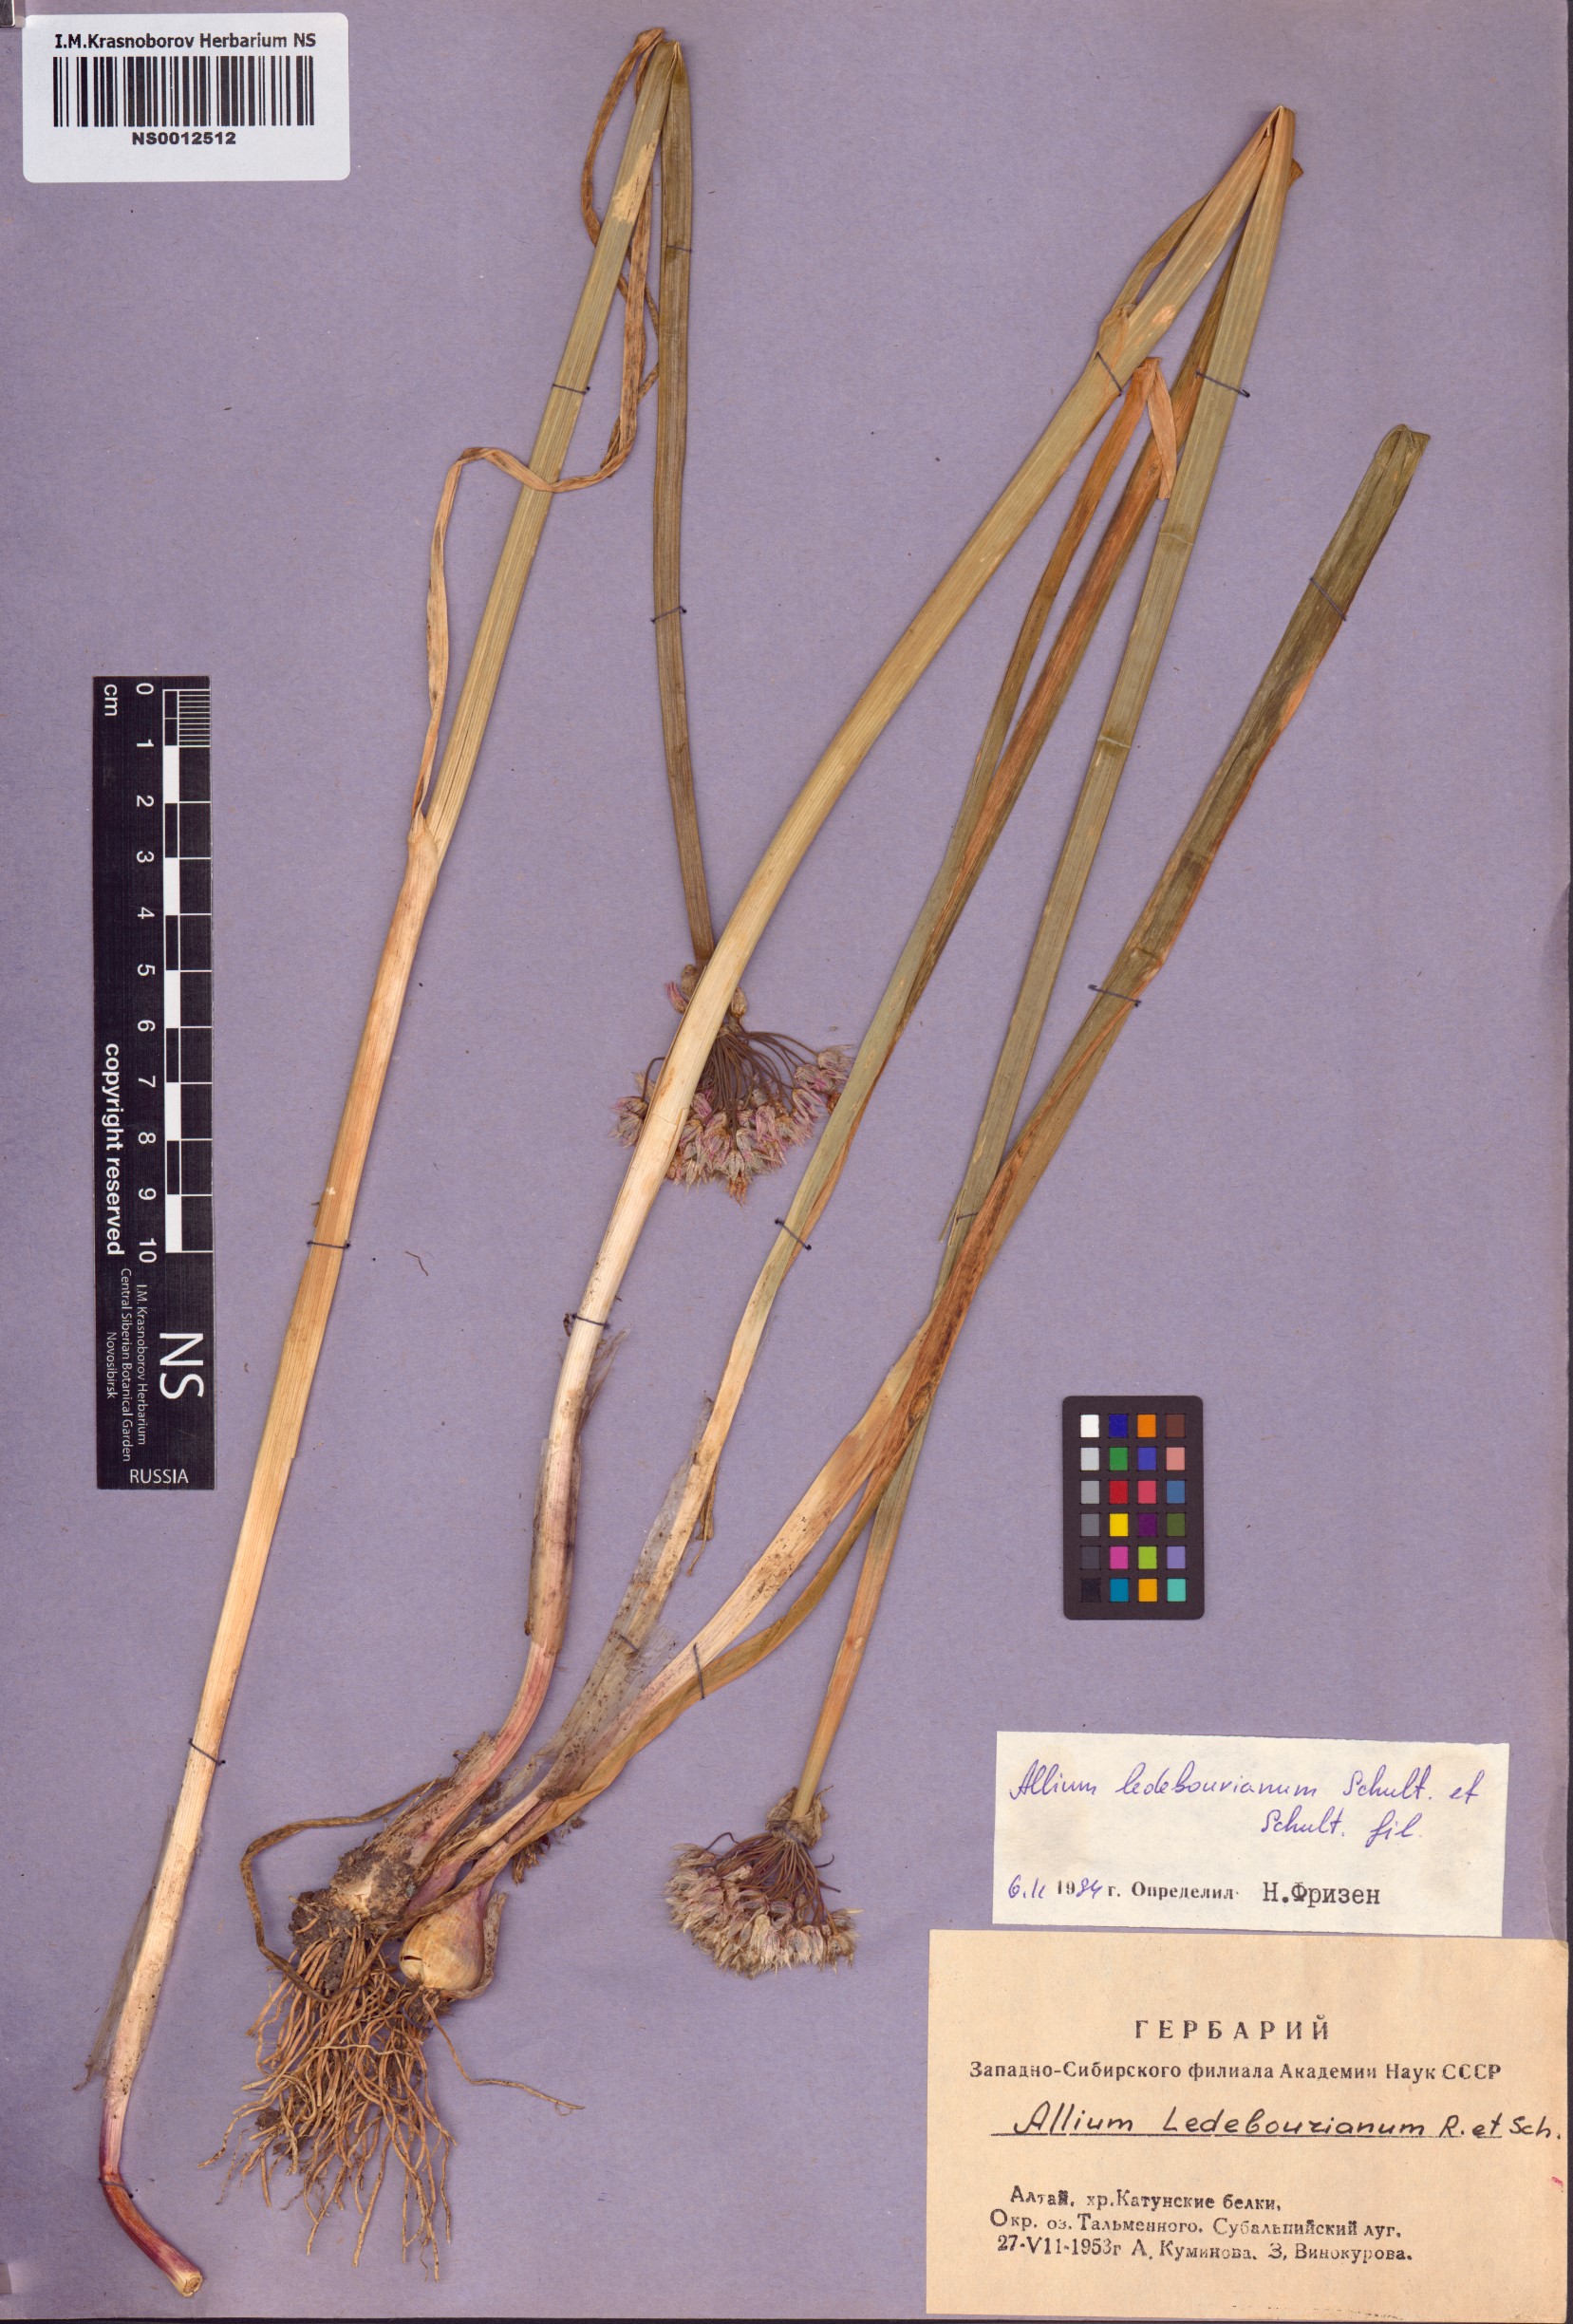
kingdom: Plantae
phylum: Tracheophyta
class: Liliopsida
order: Asparagales
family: Amaryllidaceae
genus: Allium
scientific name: Allium ledebourianum
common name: Ledebour chive
